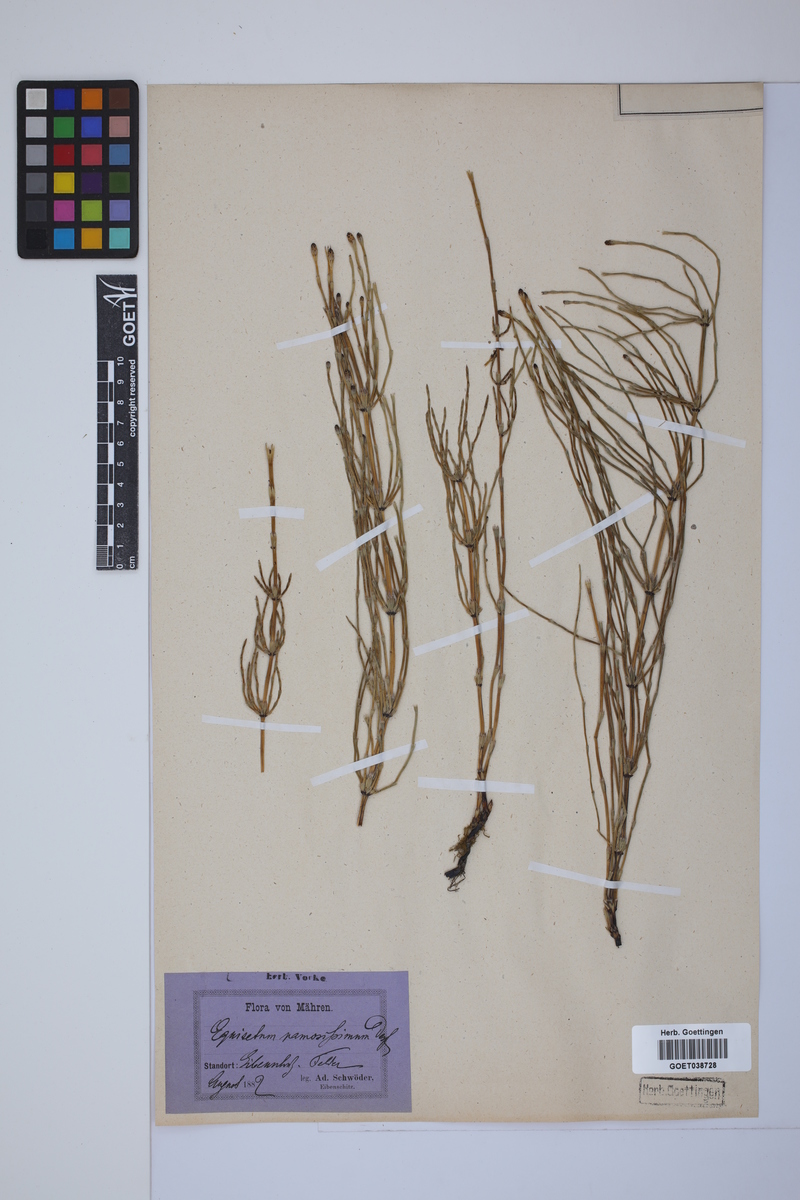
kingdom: Plantae
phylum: Tracheophyta
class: Polypodiopsida
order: Equisetales
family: Equisetaceae
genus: Equisetum
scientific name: Equisetum palustre
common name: Marsh horsetail
